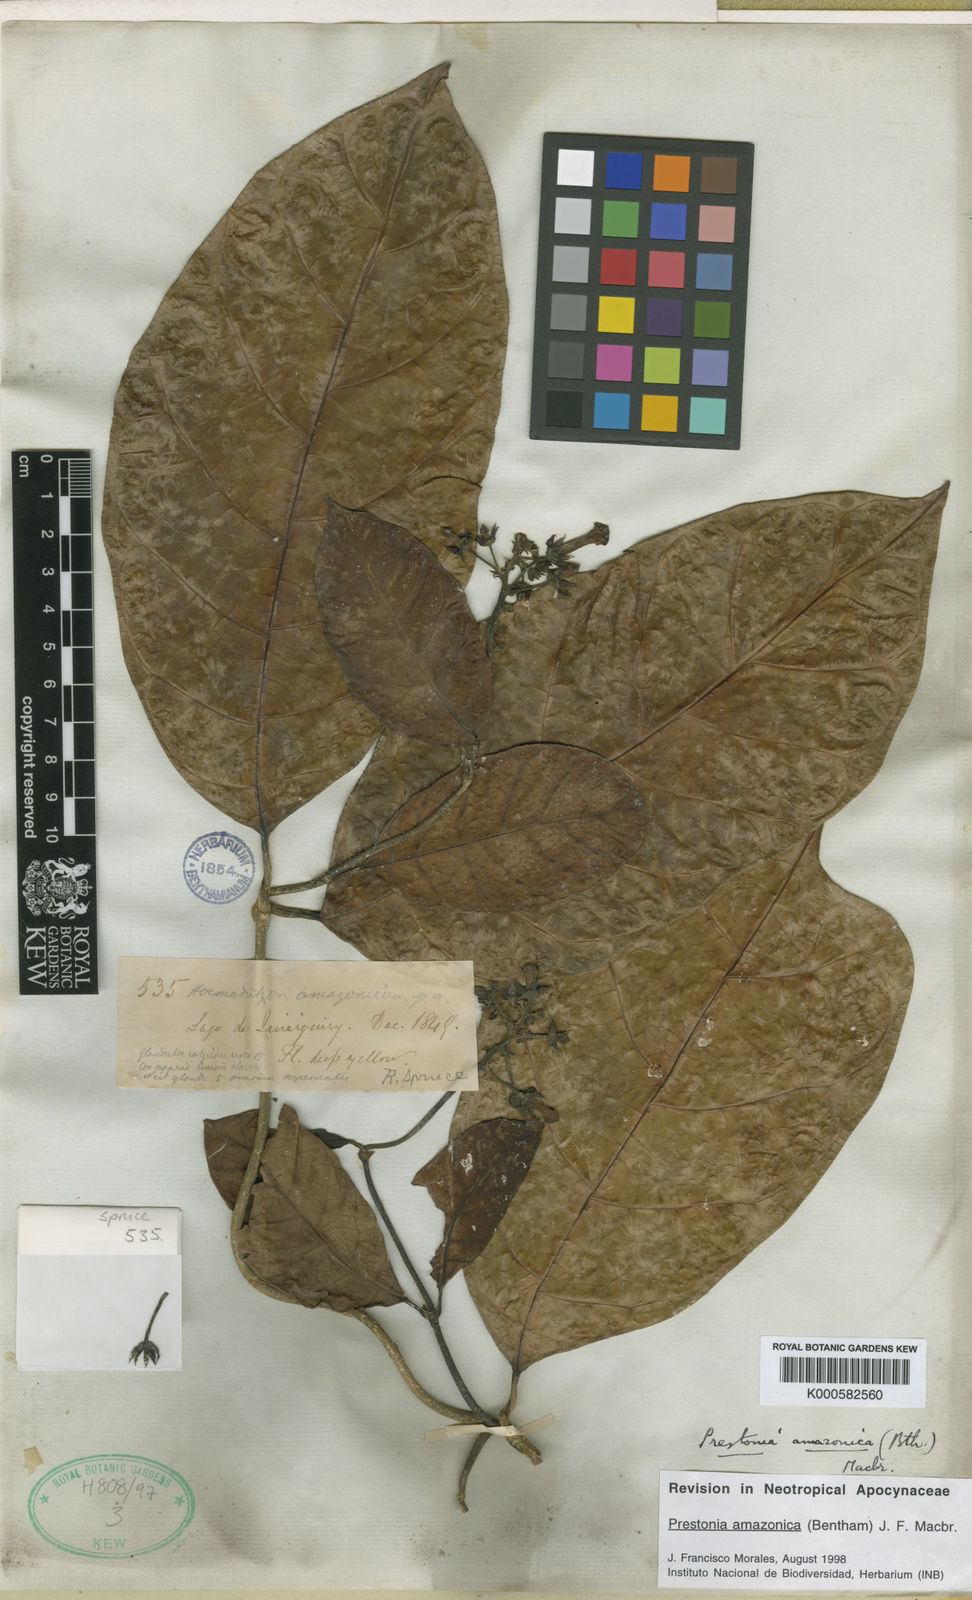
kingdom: Plantae
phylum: Tracheophyta
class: Magnoliopsida
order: Gentianales
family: Apocynaceae
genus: Prestonia
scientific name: Prestonia amazonica
